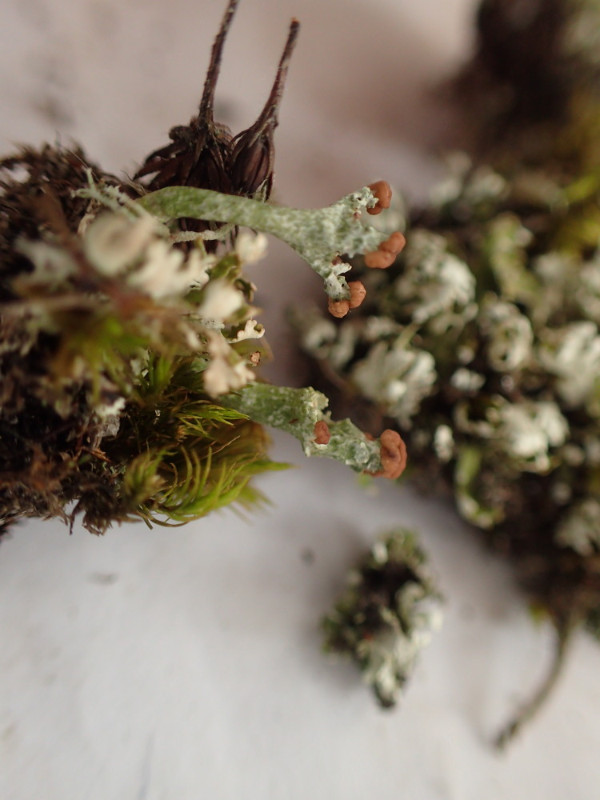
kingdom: Fungi
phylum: Ascomycota
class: Lecanoromycetes
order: Lecanorales
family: Cladoniaceae
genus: Cladonia
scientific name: Cladonia foliacea
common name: fliget bægerlav
